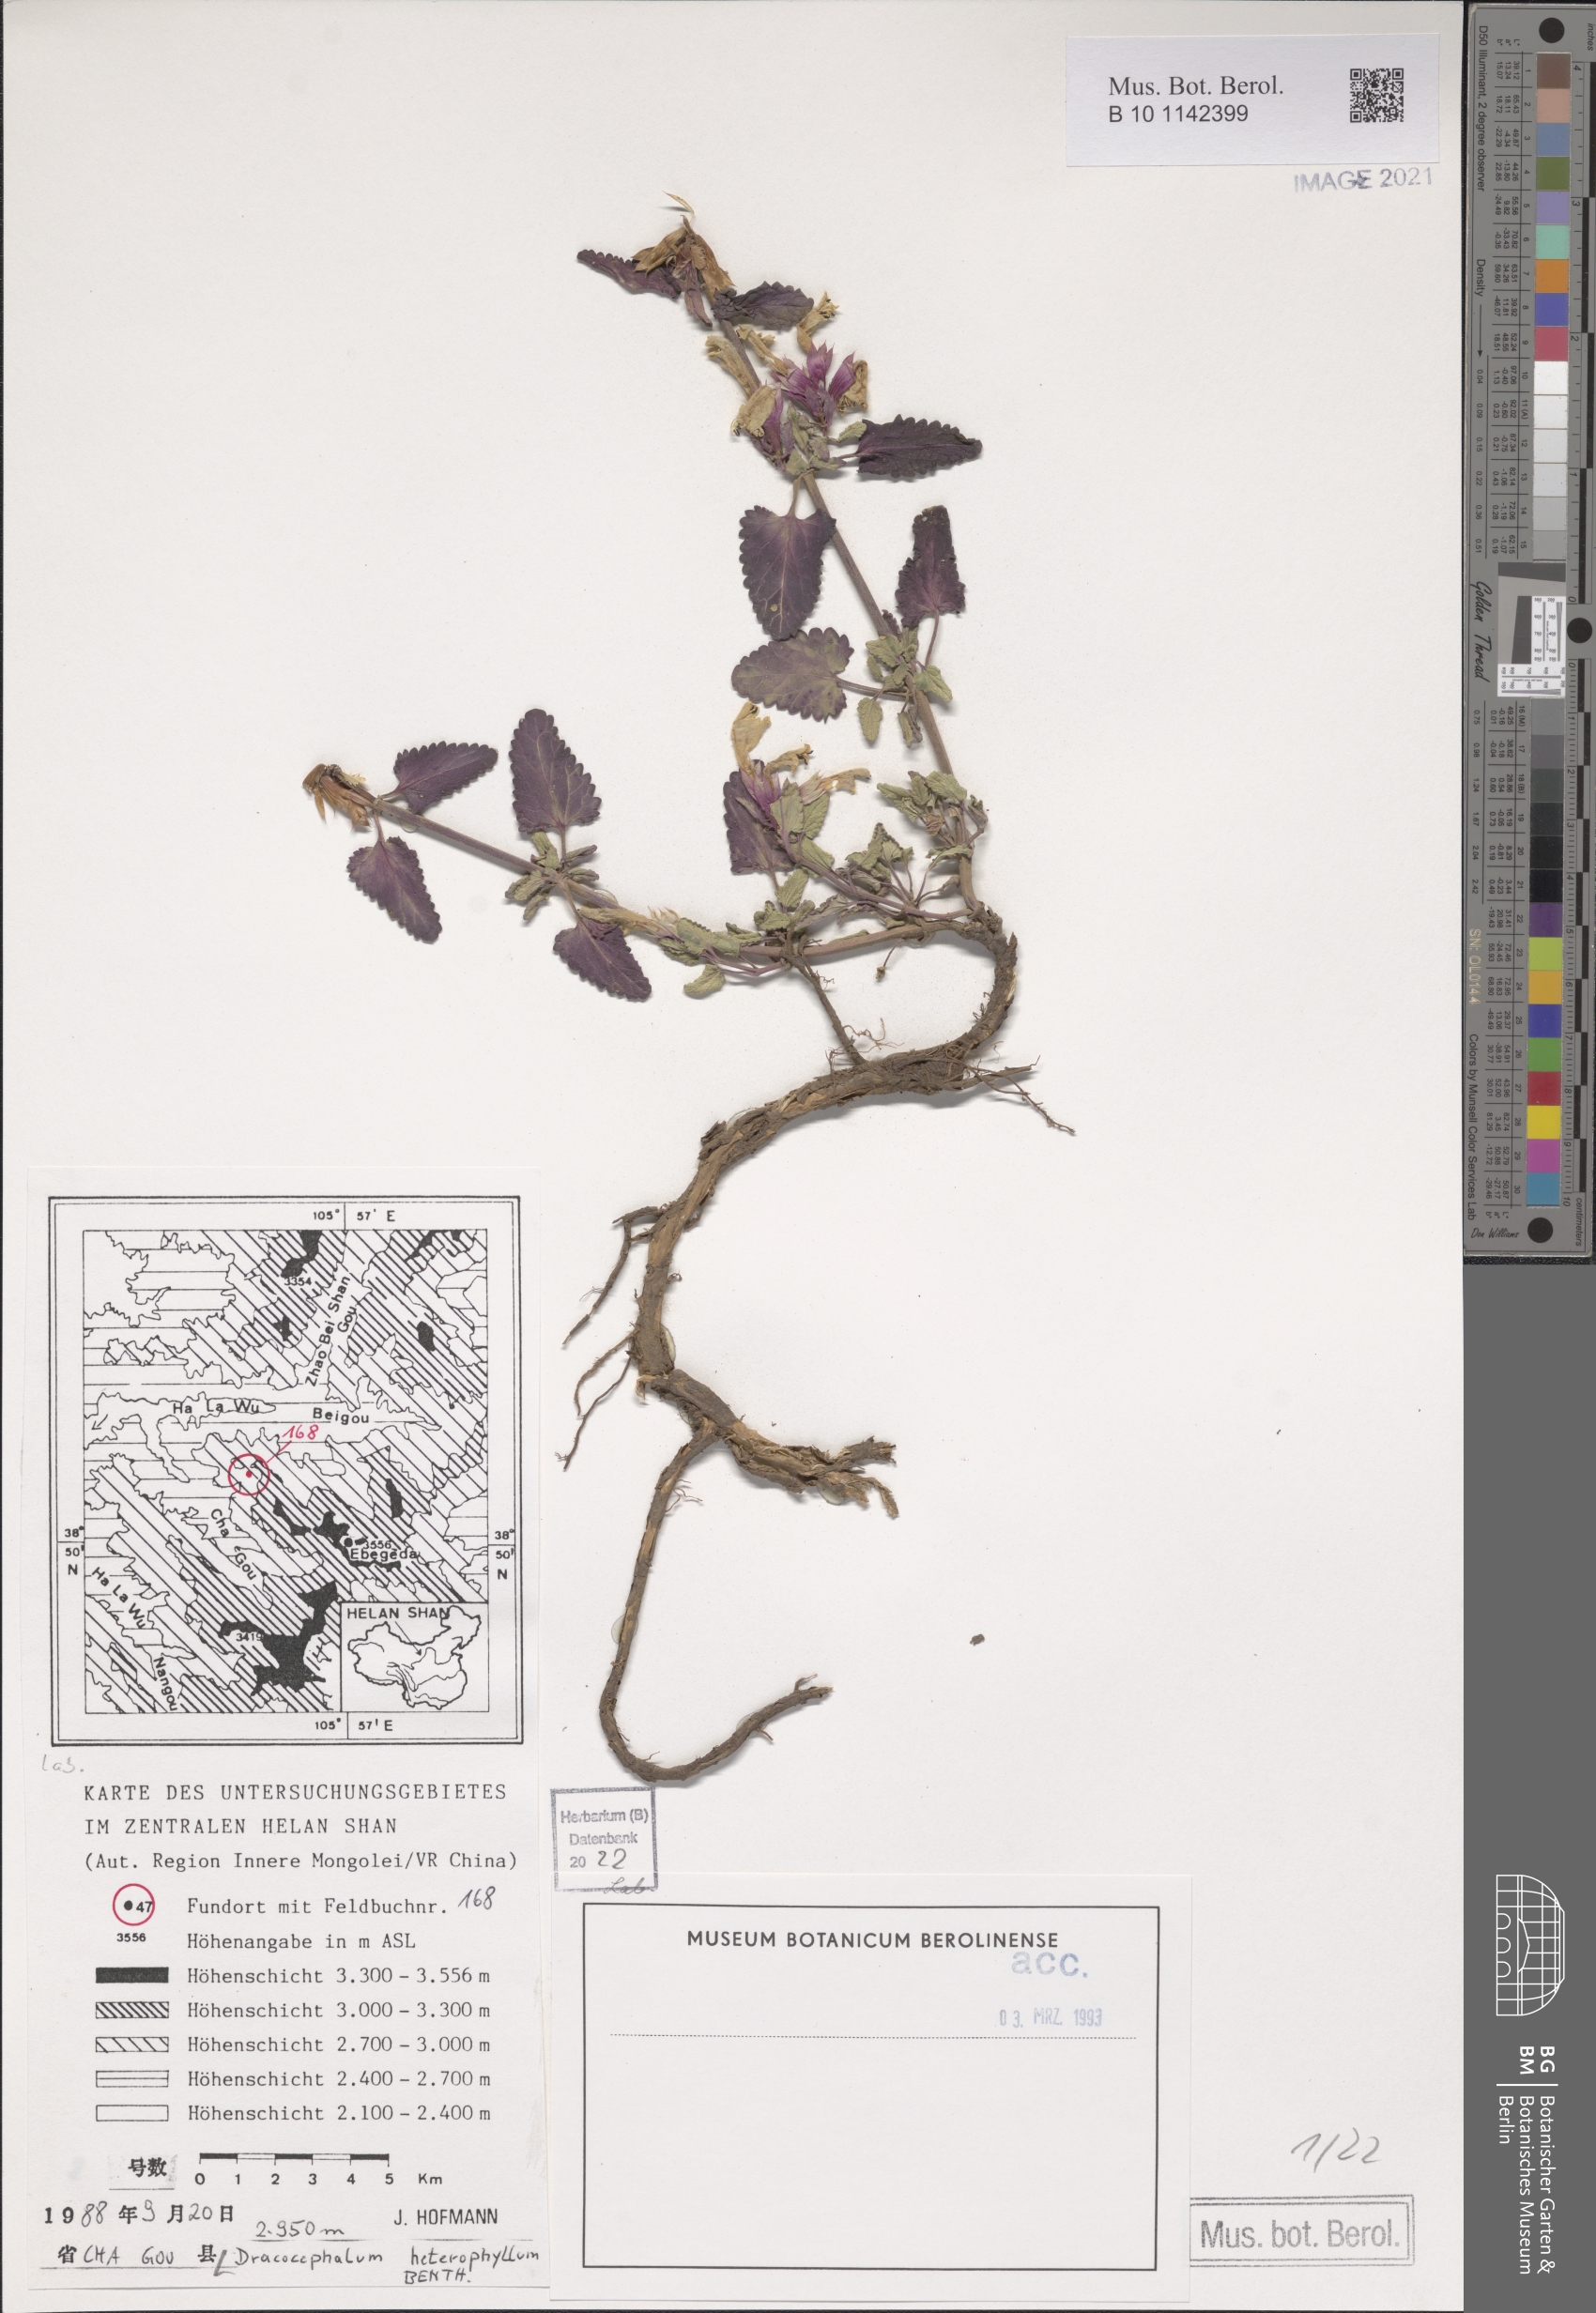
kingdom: Plantae
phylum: Tracheophyta
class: Magnoliopsida
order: Lamiales
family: Lamiaceae
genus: Dracocephalum
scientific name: Dracocephalum heterophyllum
